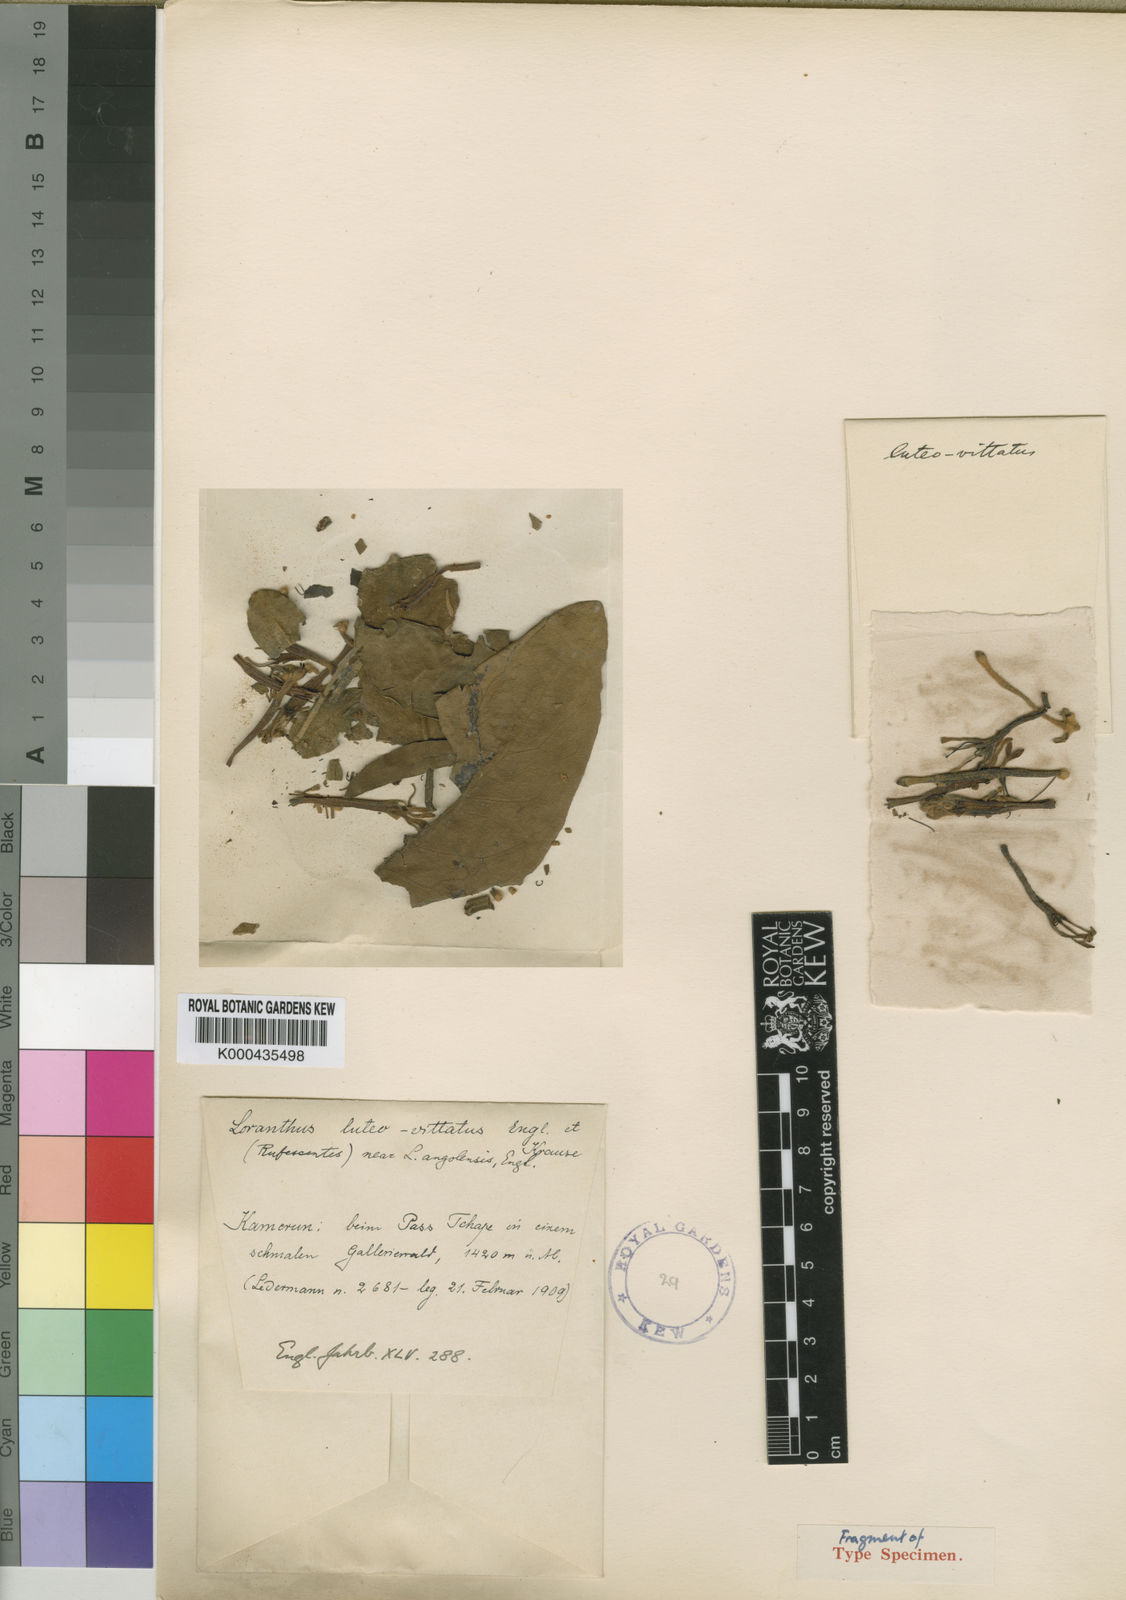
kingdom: Plantae
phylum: Tracheophyta
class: Magnoliopsida
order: Santalales
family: Loranthaceae
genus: Phragmanthera
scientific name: Phragmanthera luteovittata
